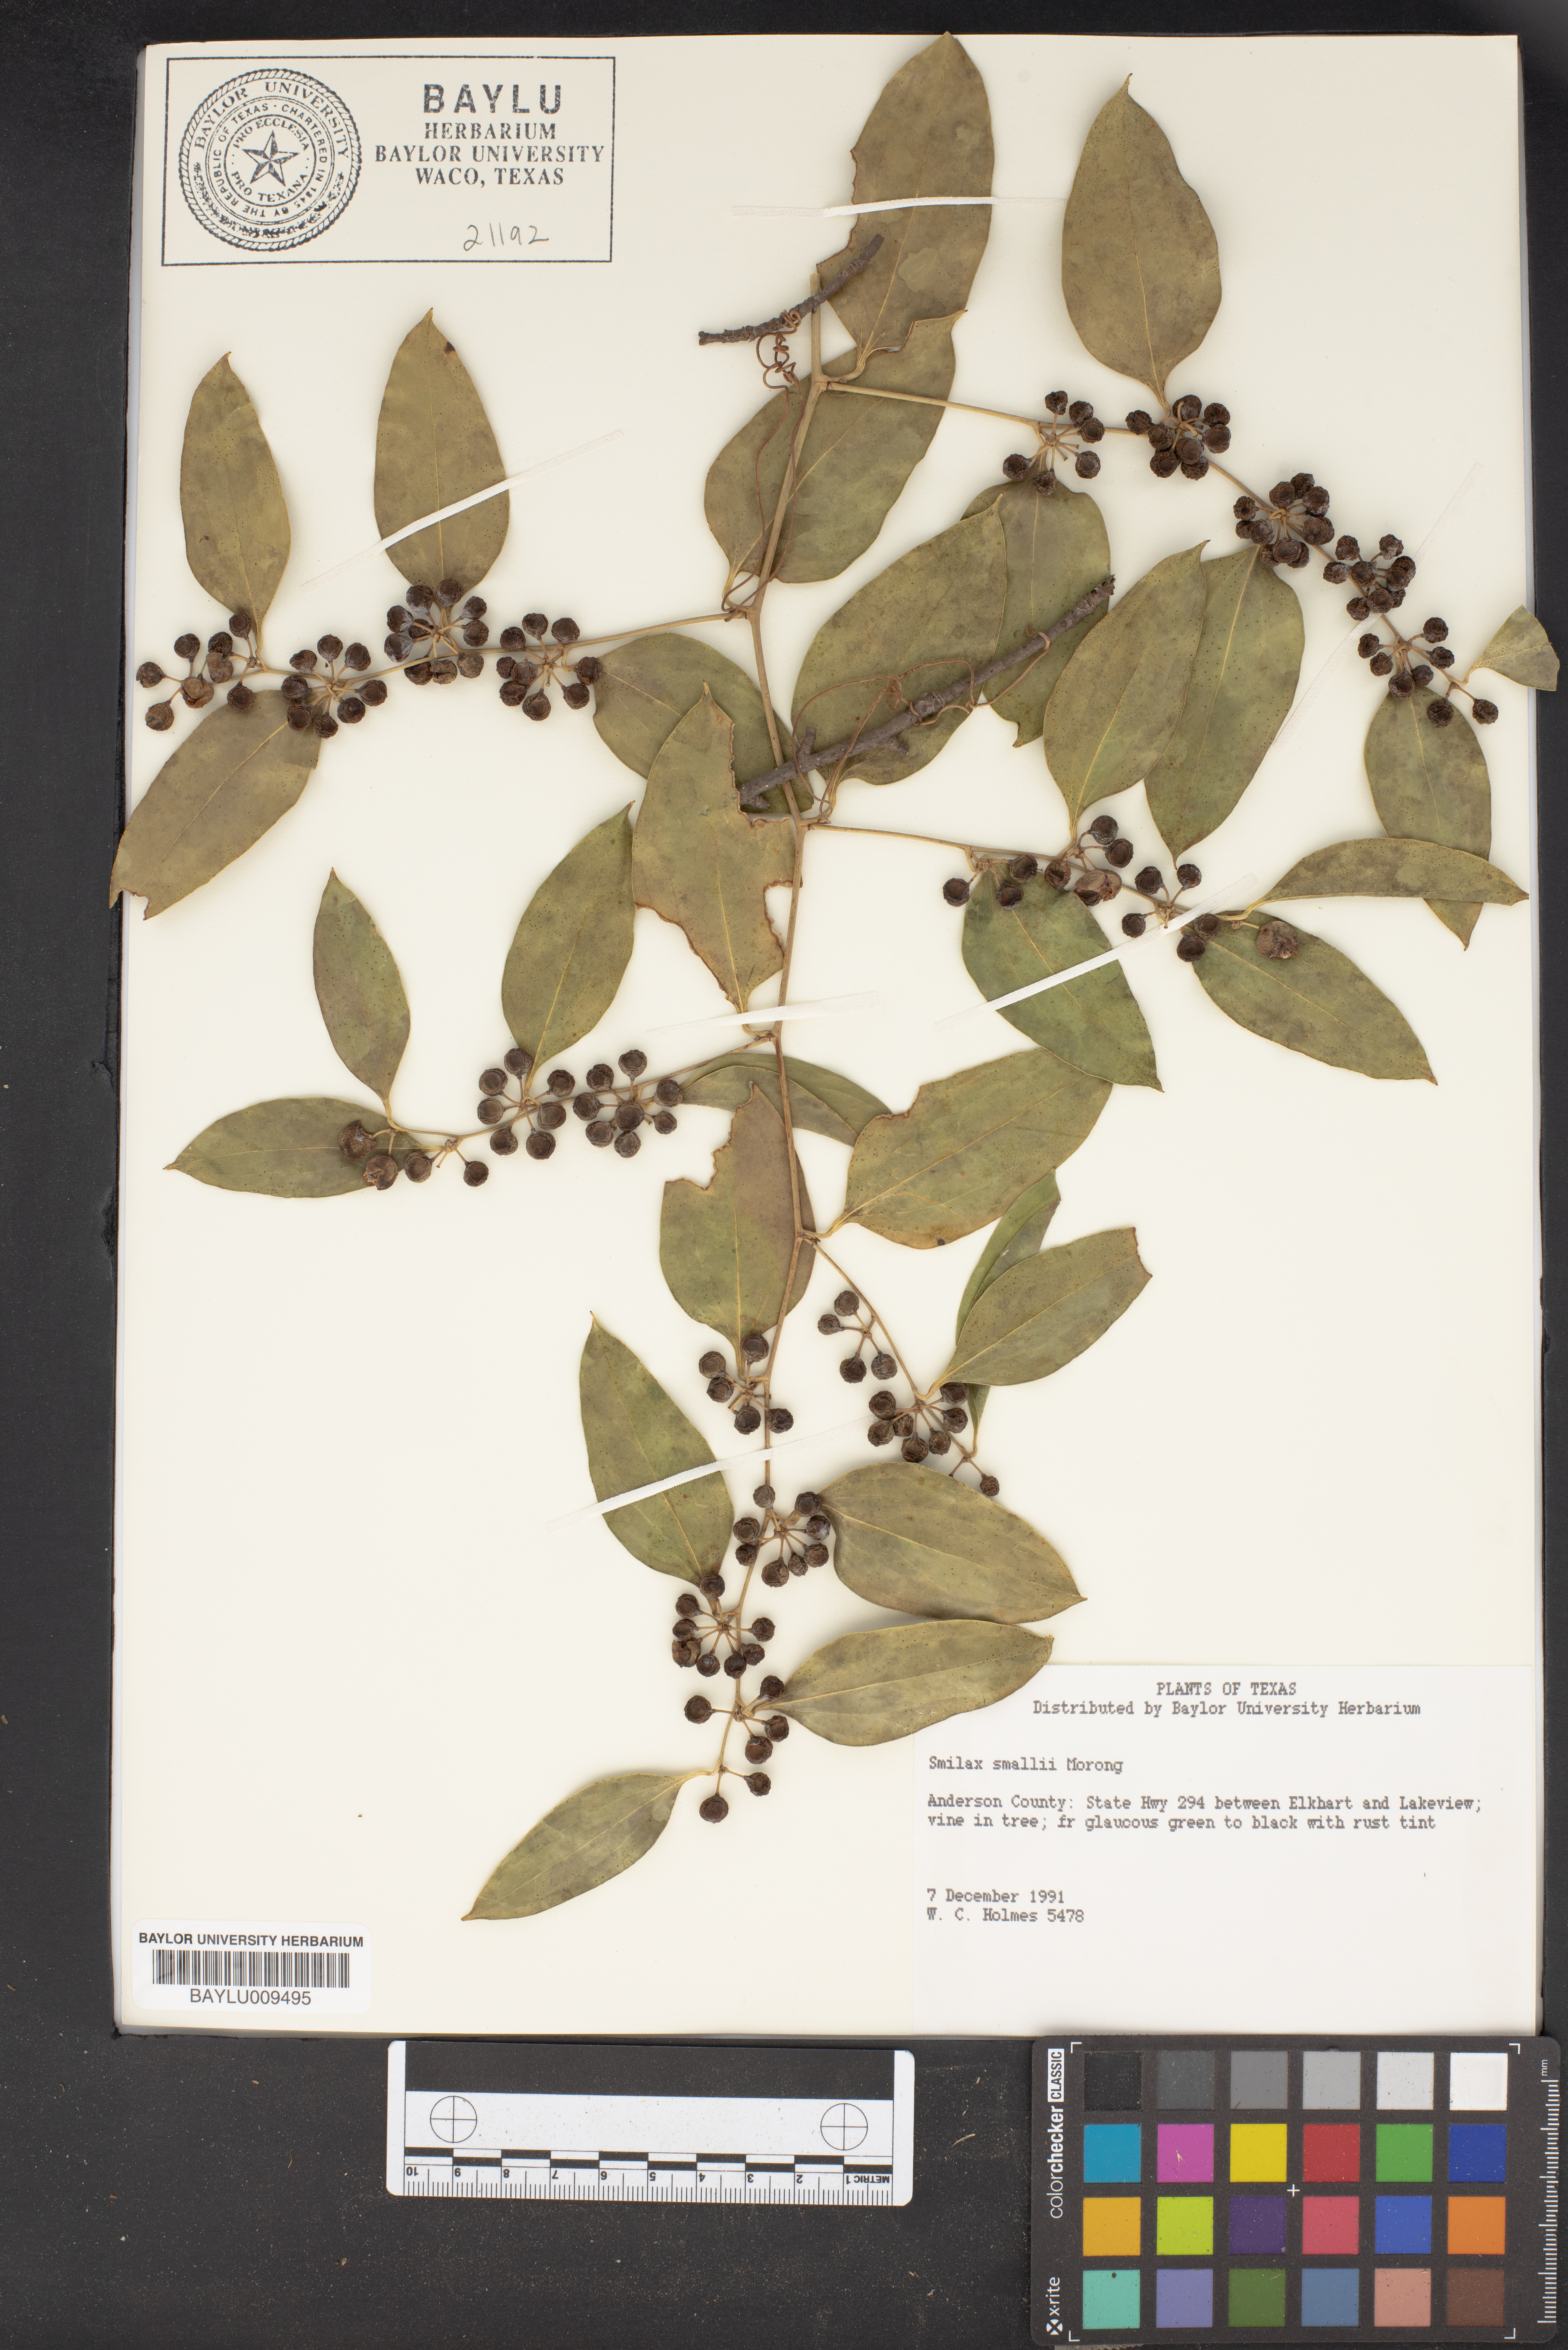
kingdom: Plantae
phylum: Tracheophyta
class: Liliopsida
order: Liliales
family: Smilacaceae
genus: Smilax
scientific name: Smilax maritima
